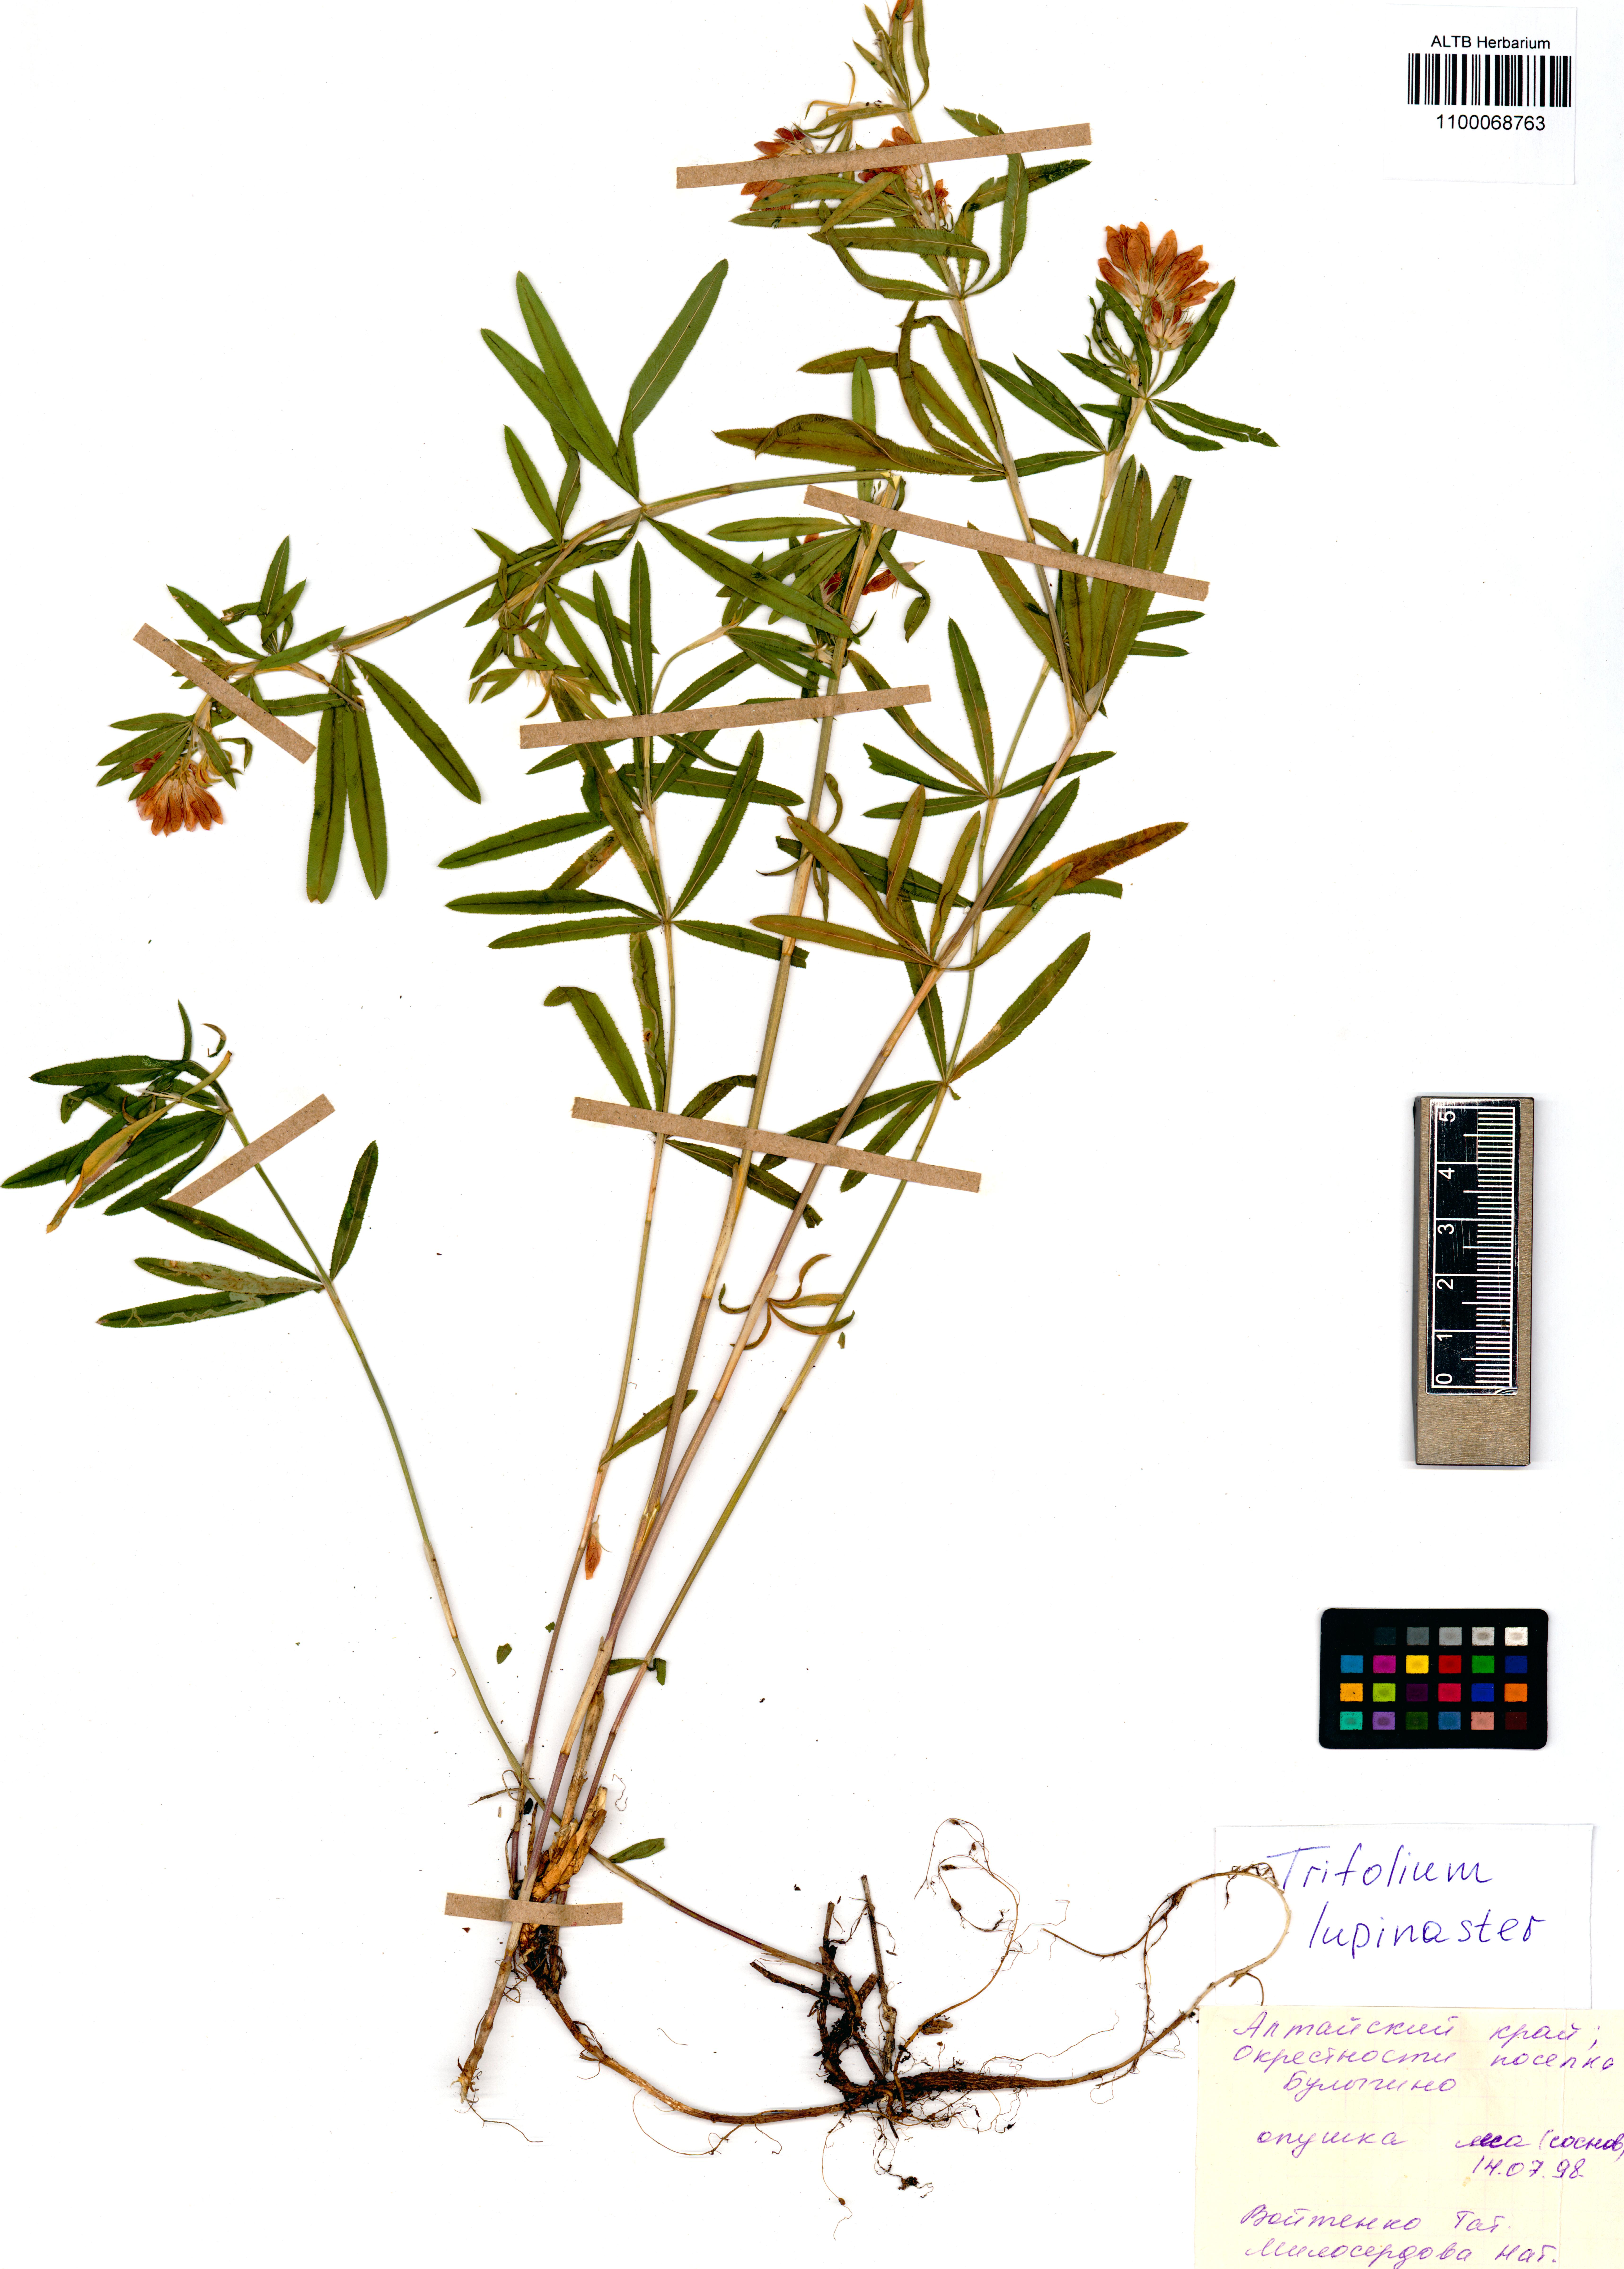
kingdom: Plantae
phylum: Tracheophyta
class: Magnoliopsida
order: Fabales
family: Fabaceae
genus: Trifolium
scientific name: Trifolium lupinaster
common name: Lupine clover
